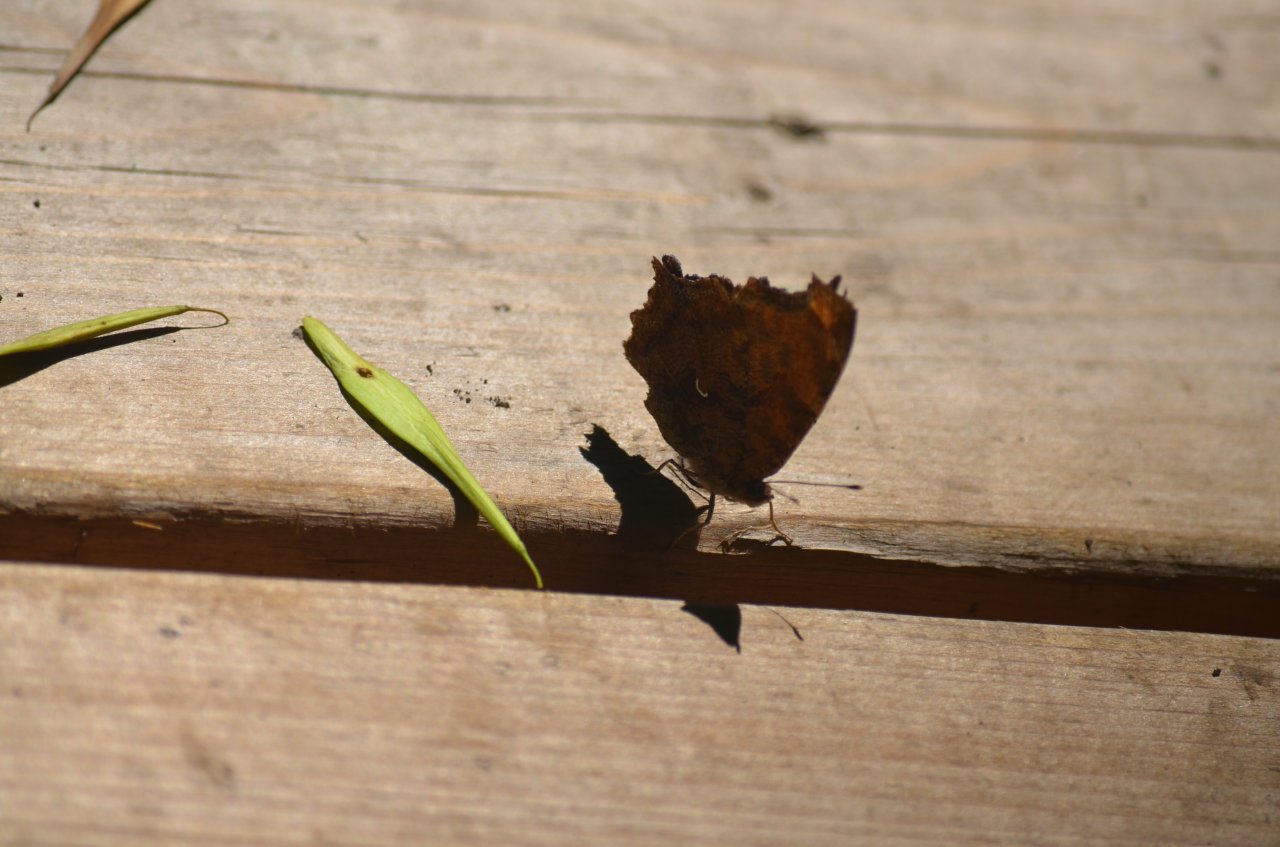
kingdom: Animalia
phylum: Arthropoda
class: Insecta
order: Lepidoptera
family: Nymphalidae
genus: Polygonia
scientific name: Polygonia comma
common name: Eastern Comma
